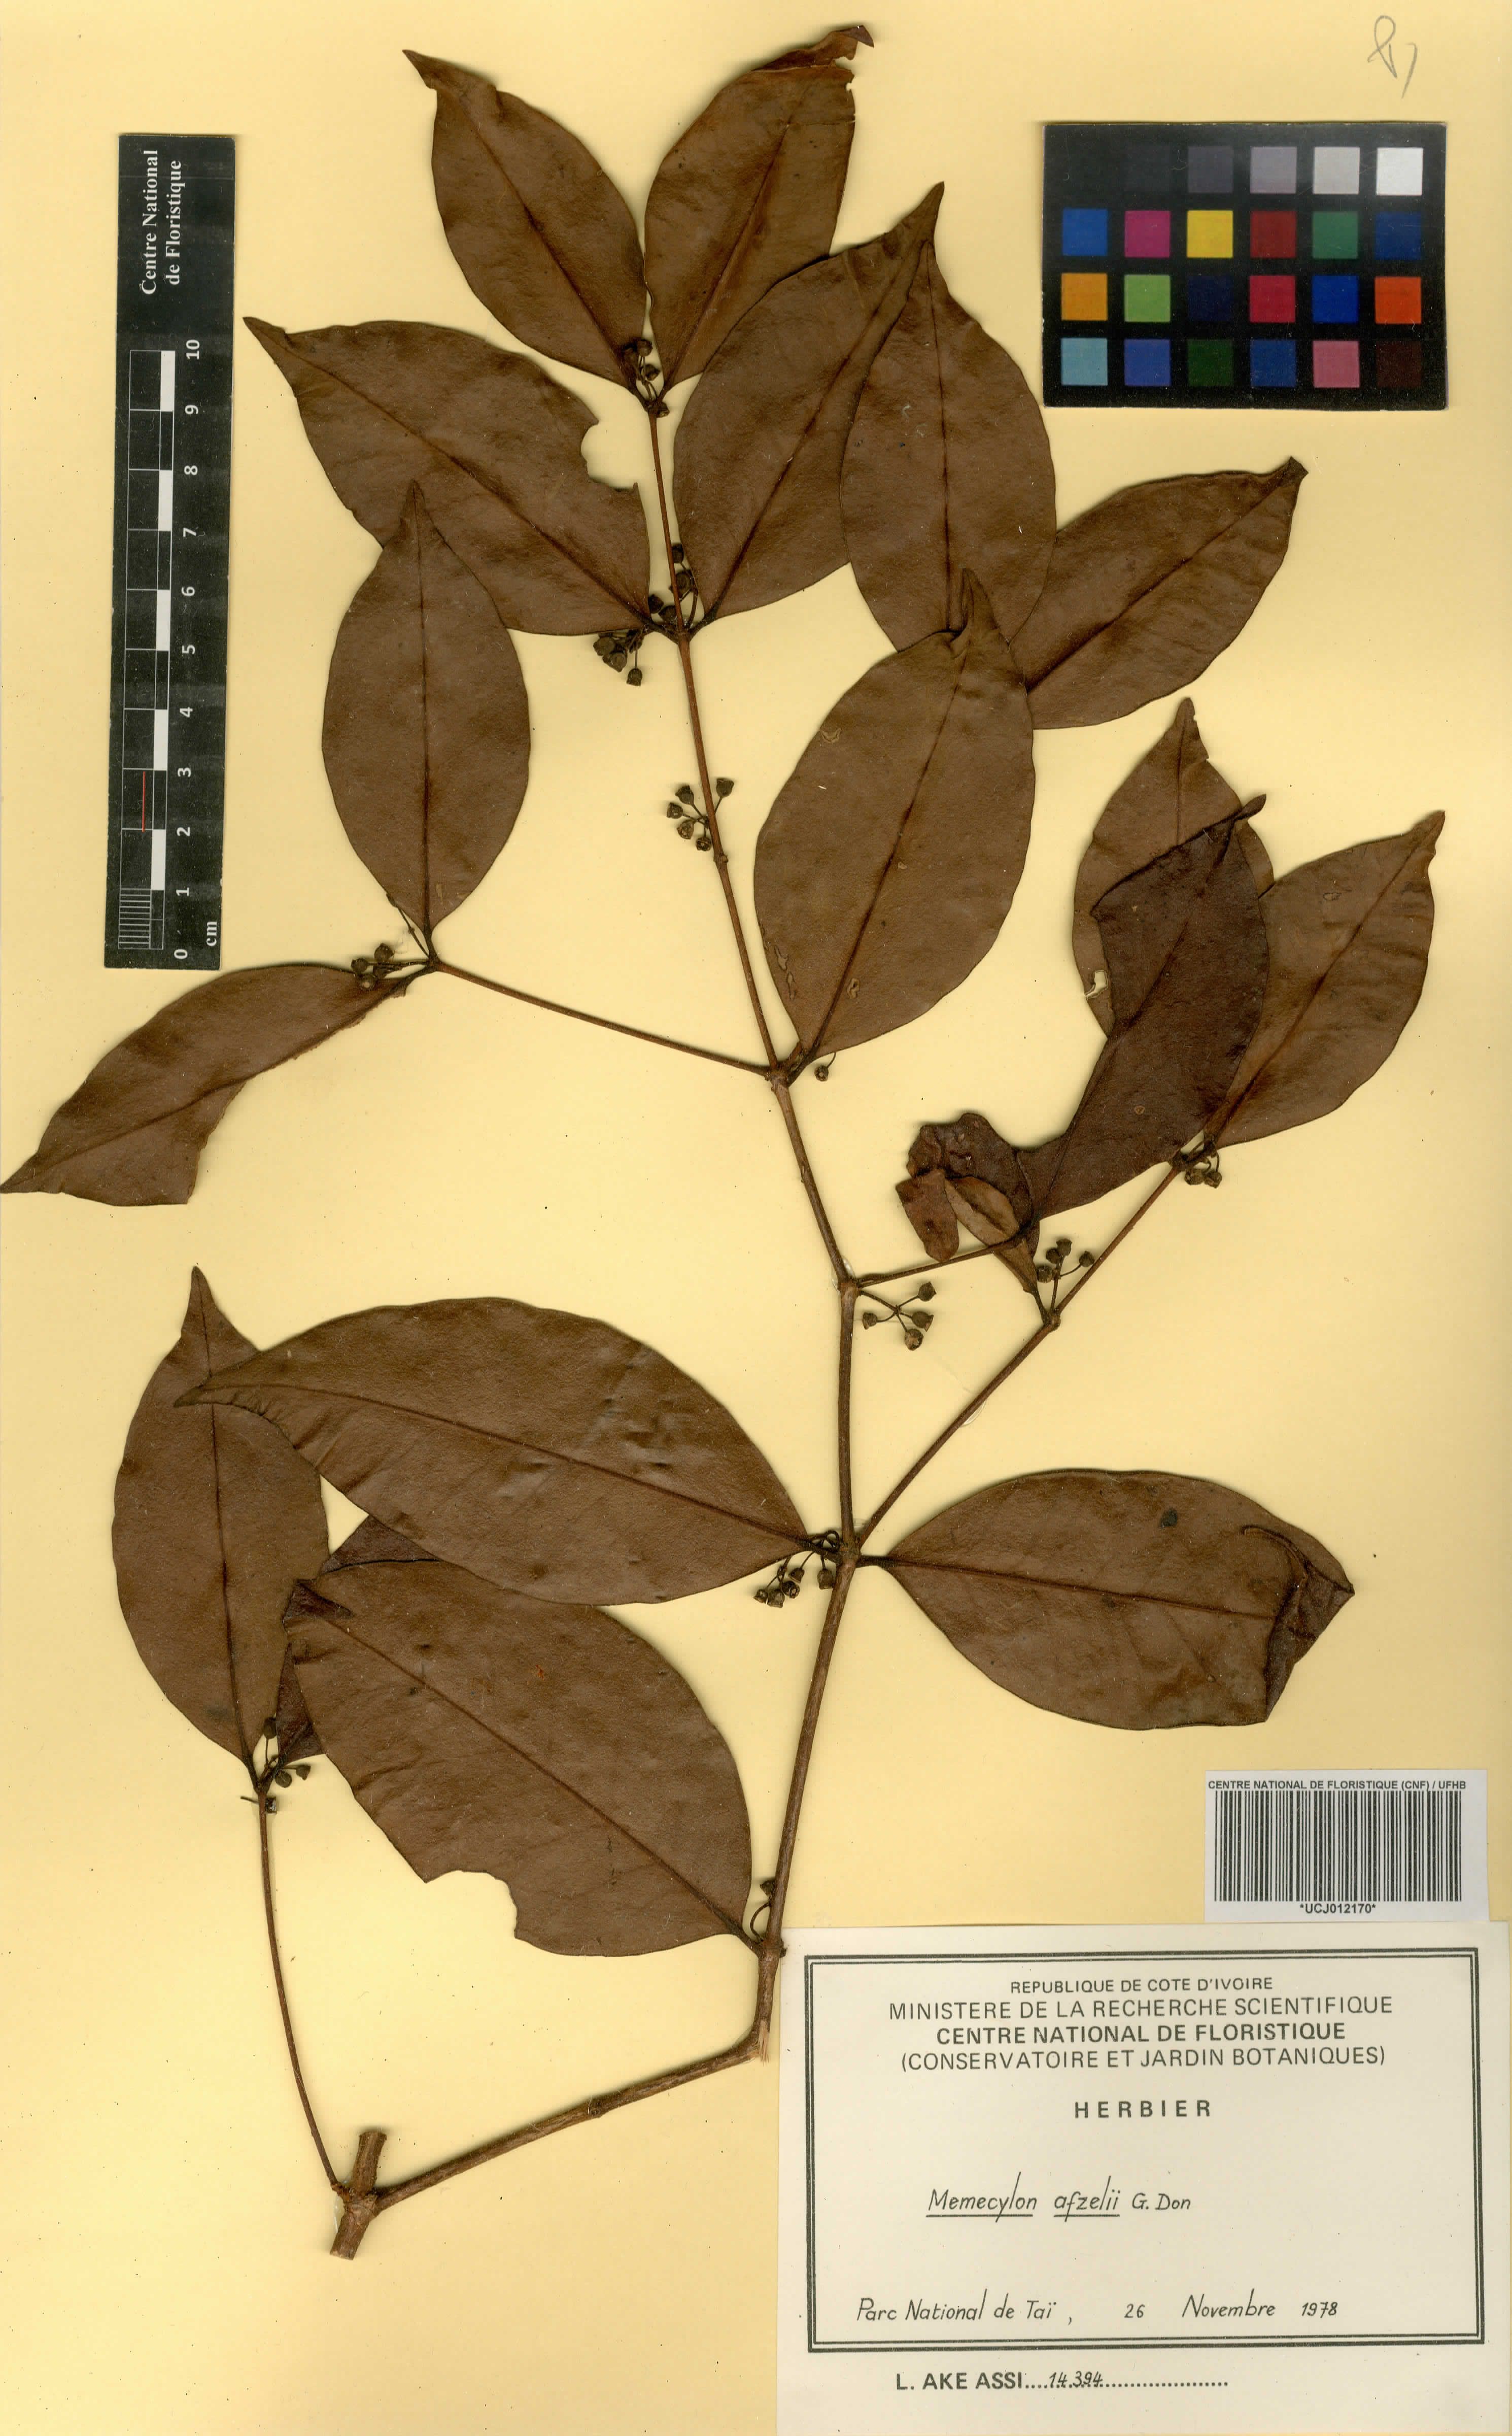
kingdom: Plantae
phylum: Tracheophyta
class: Magnoliopsida
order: Myrtales
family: Melastomataceae
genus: Memecylon
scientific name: Memecylon afzelii
